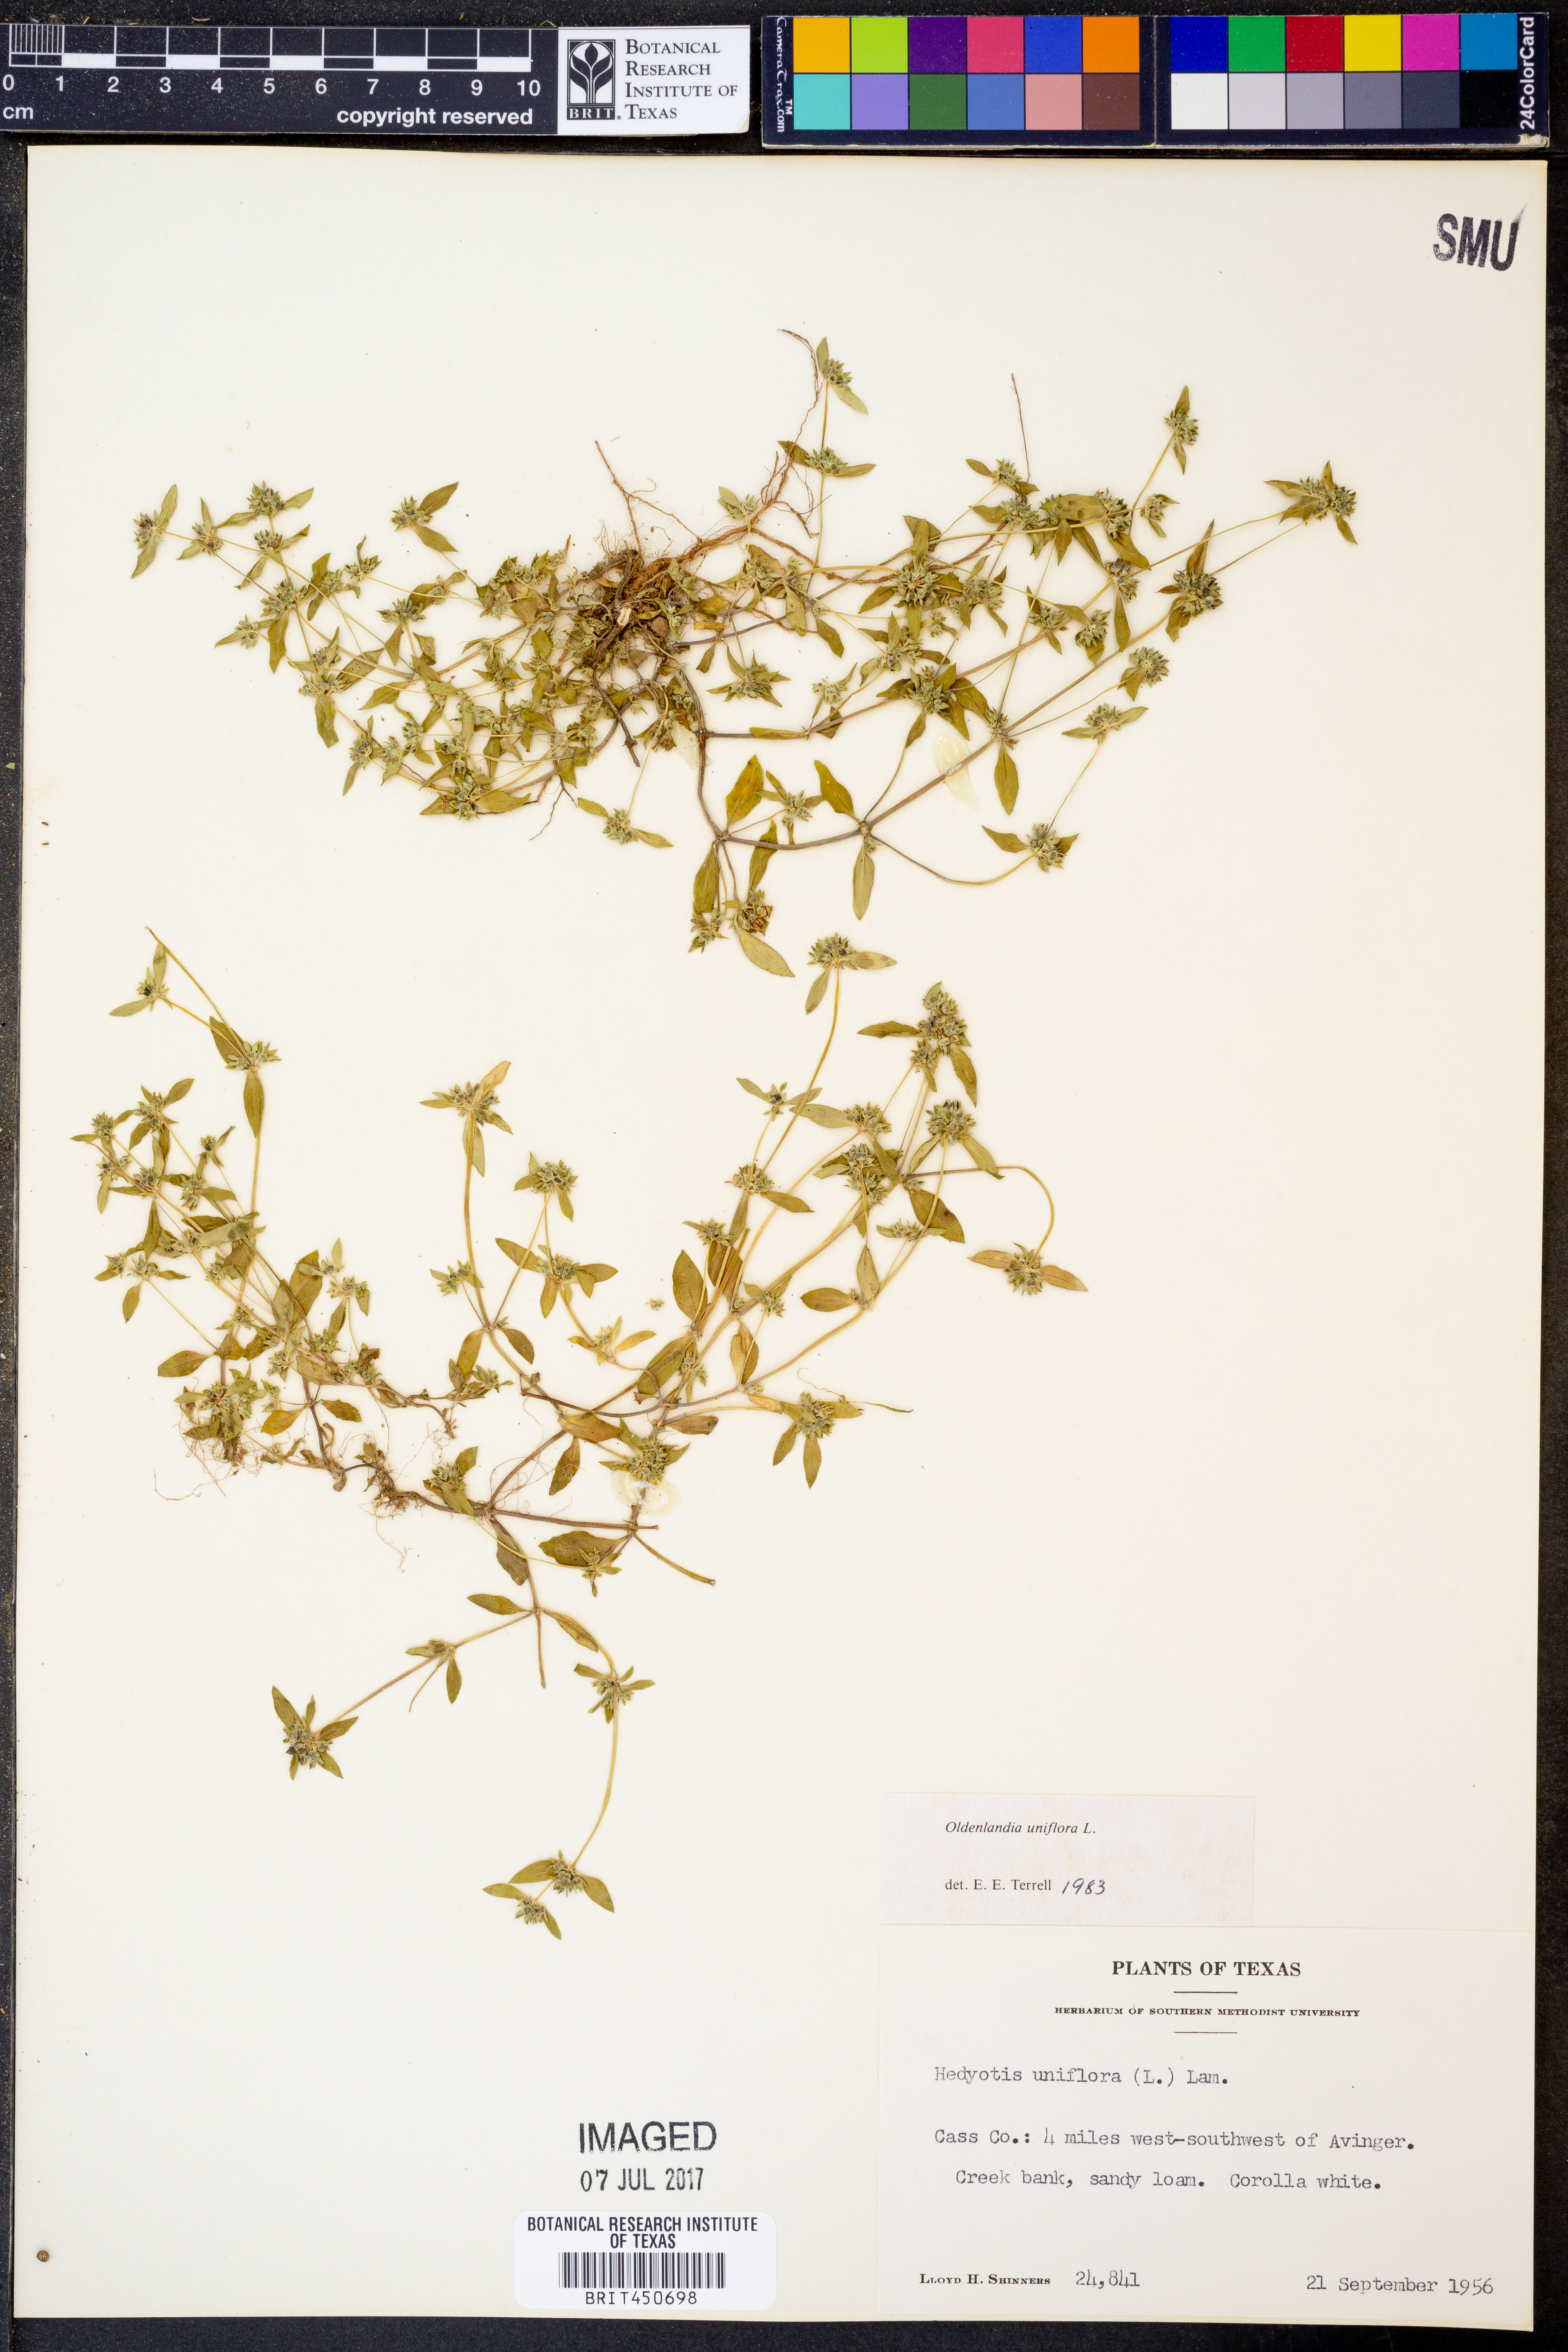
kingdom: Plantae
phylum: Tracheophyta
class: Magnoliopsida
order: Gentianales
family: Rubiaceae
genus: Edrastima
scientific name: Edrastima uniflora
